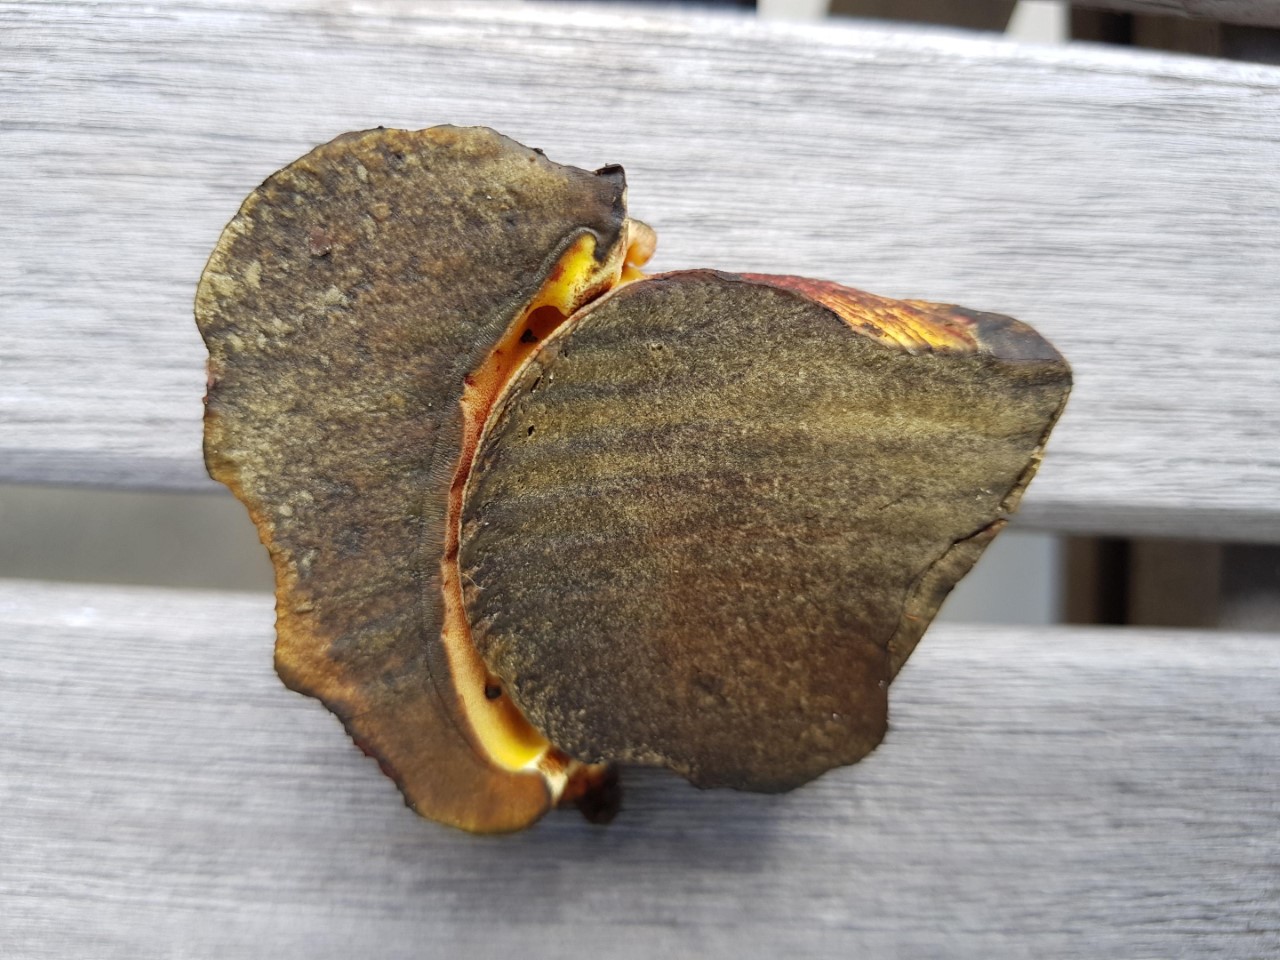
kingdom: Fungi
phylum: Basidiomycota
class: Agaricomycetes
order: Boletales
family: Boletaceae
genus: Imperator
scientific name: Imperator rhodopurpureus
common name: purpur-rørhat
